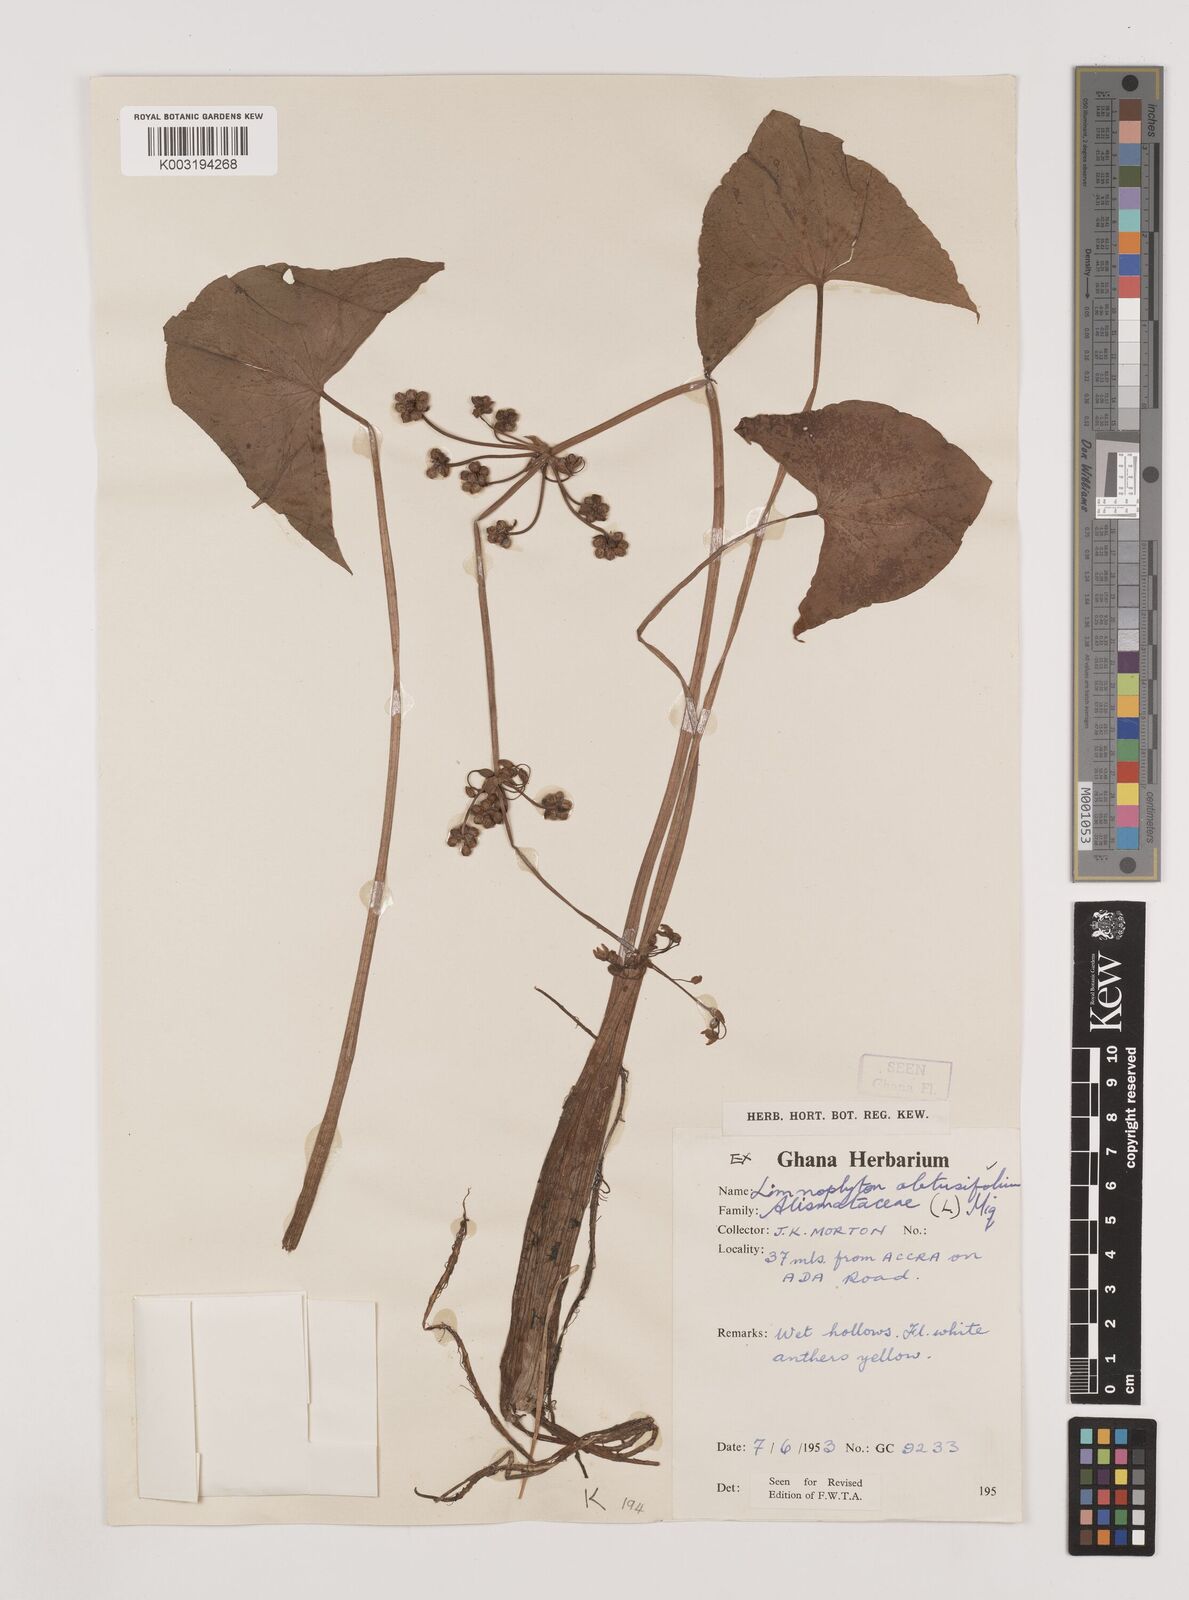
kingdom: Plantae
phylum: Tracheophyta
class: Liliopsida
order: Alismatales
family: Alismataceae
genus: Limnophyton
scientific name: Limnophyton obtusifolium
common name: Arrow head
